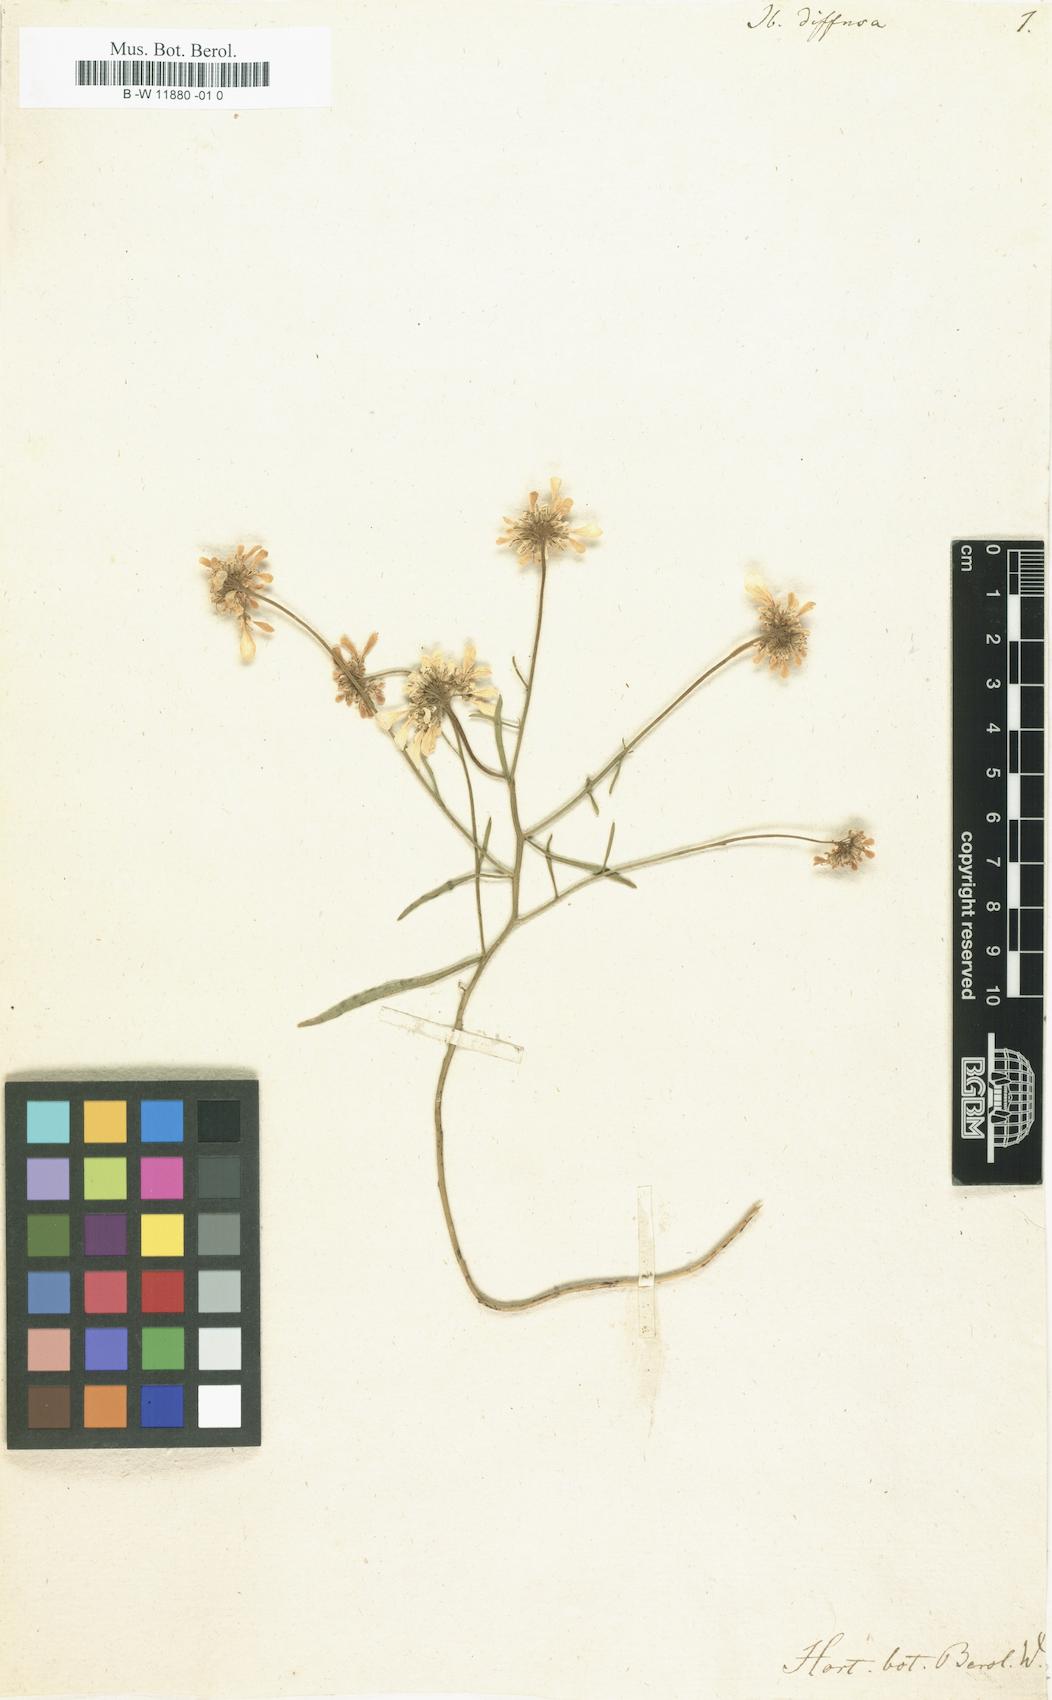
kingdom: Plantae
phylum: Tracheophyta
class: Magnoliopsida
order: Brassicales
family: Brassicaceae
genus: Iberis
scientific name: Iberis
